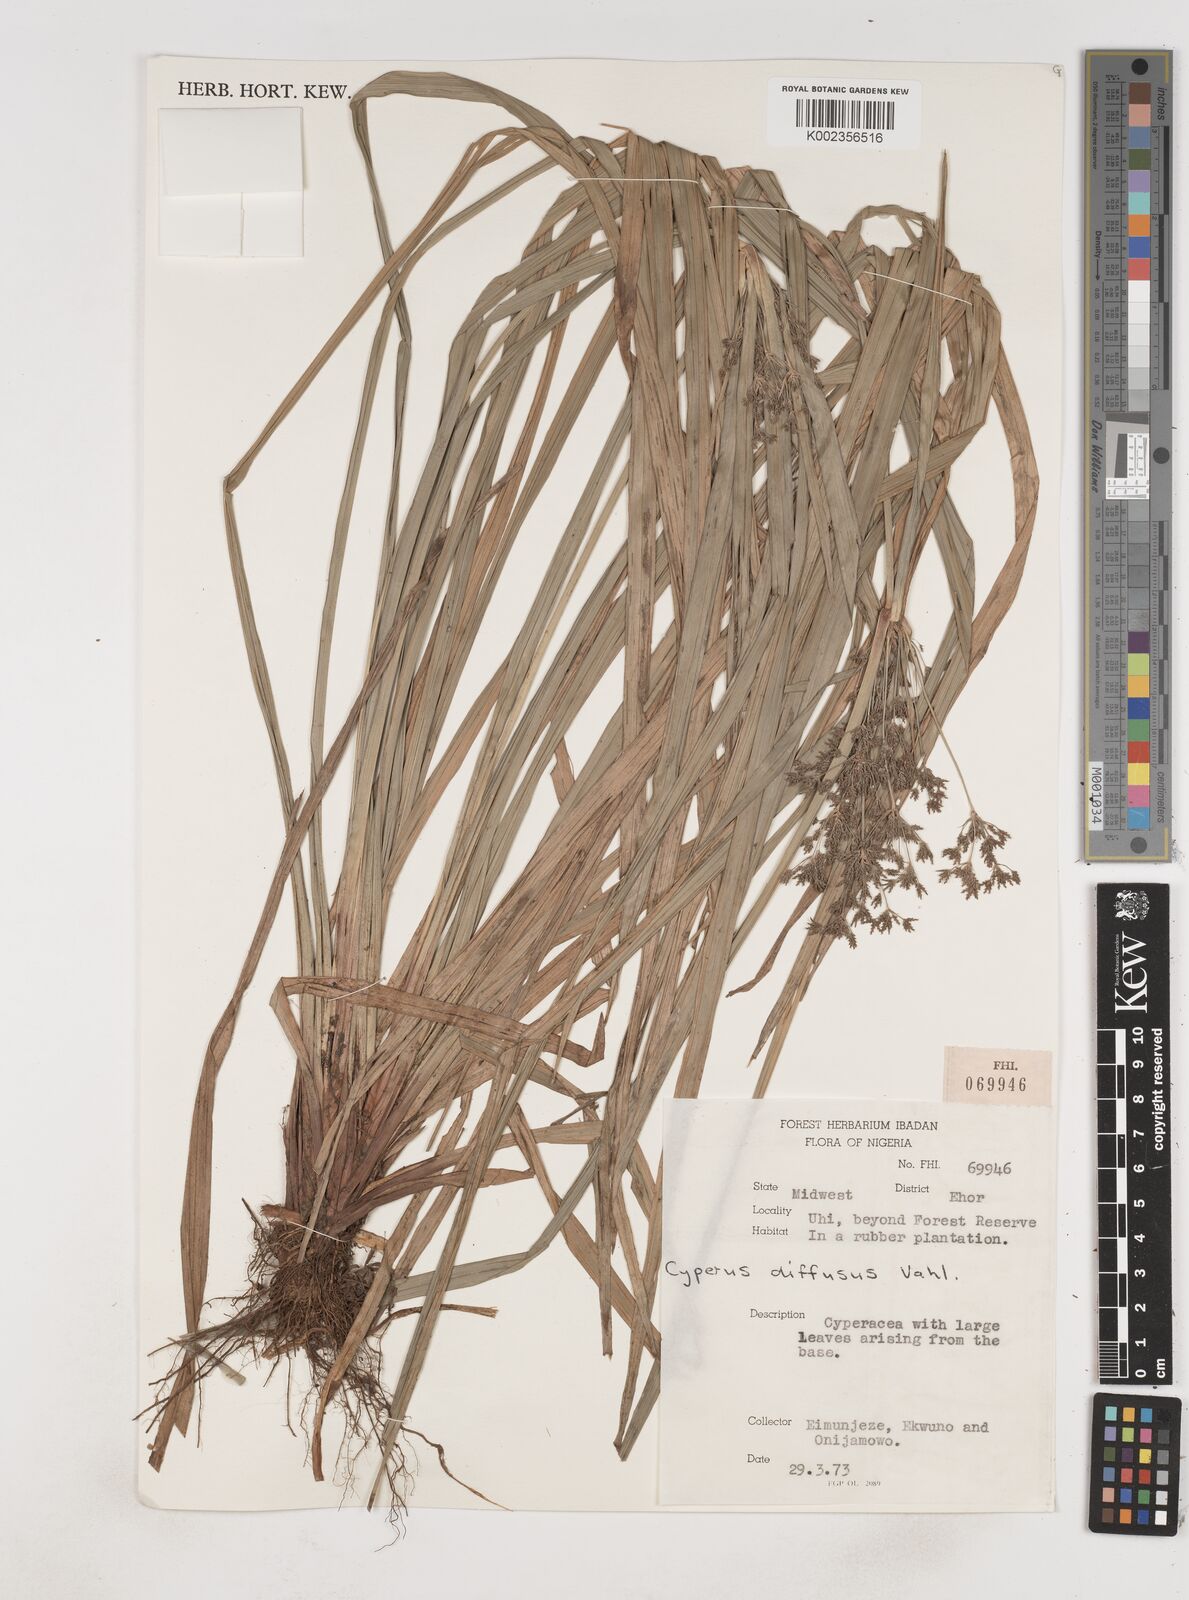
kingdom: Plantae
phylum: Tracheophyta
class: Liliopsida
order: Poales
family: Cyperaceae
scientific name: Cyperaceae
